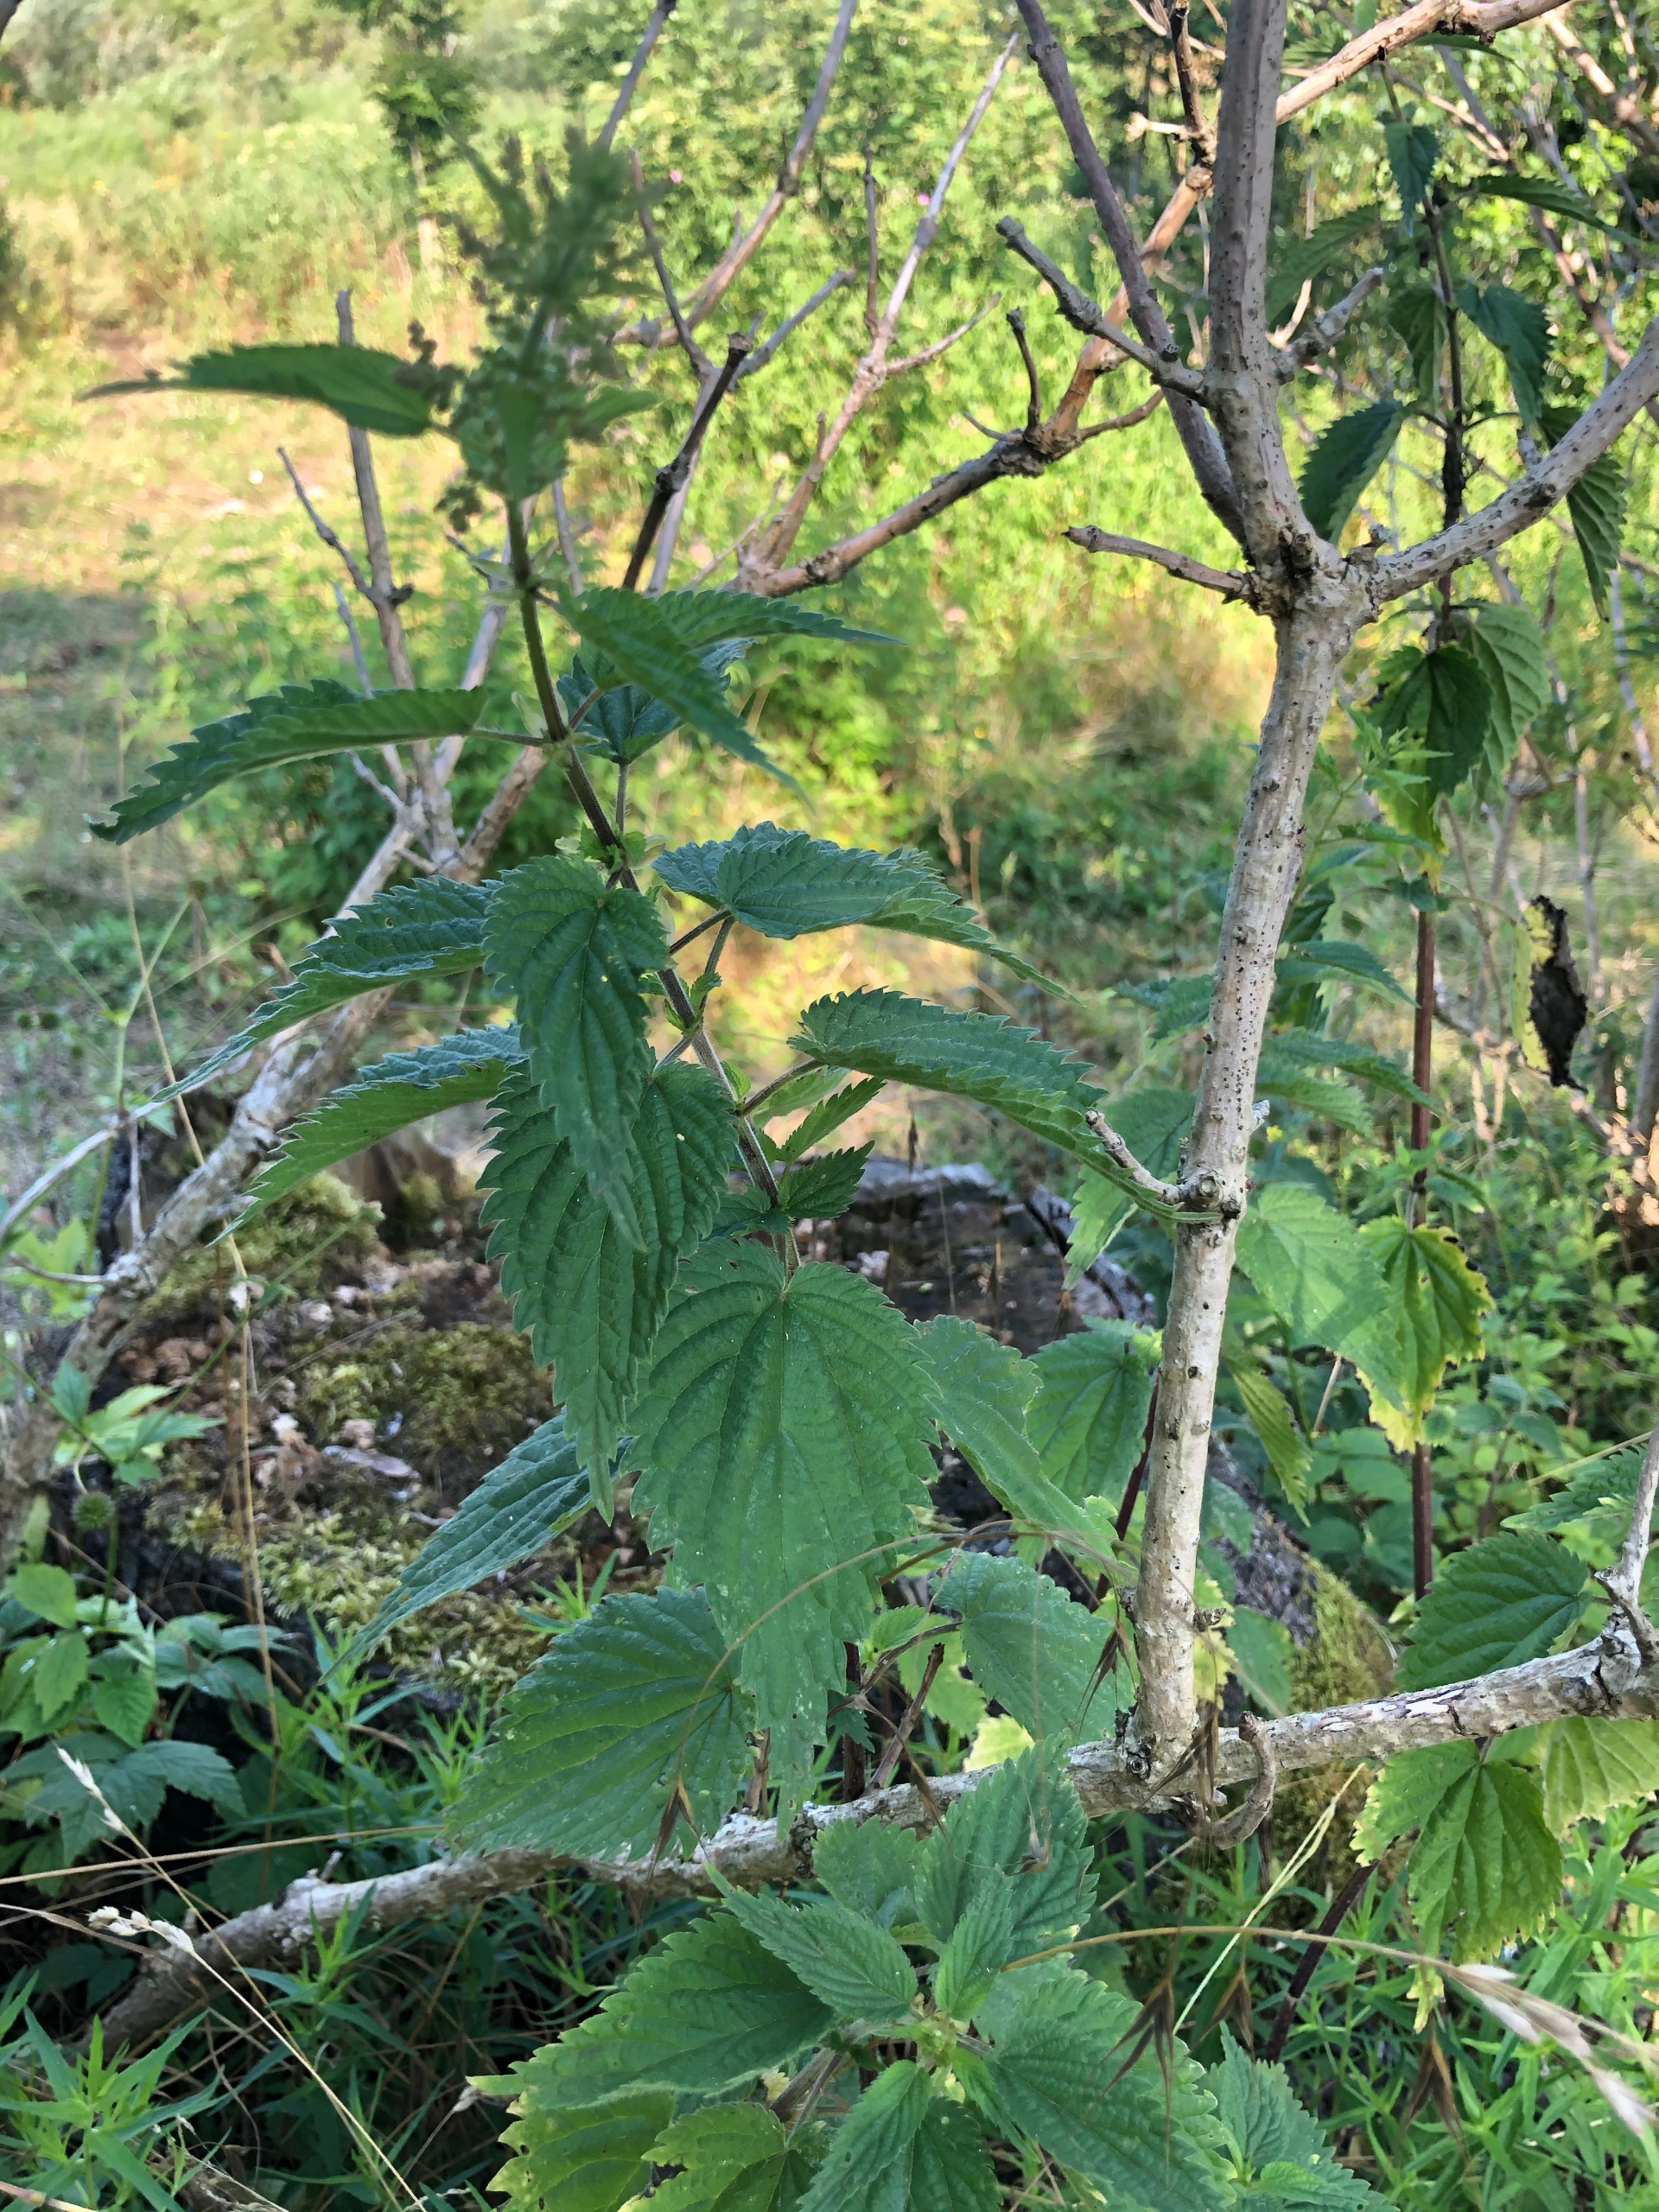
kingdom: Plantae
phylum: Tracheophyta
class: Magnoliopsida
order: Rosales
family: Urticaceae
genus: Urtica
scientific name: Urtica dioica
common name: Stor nælde
